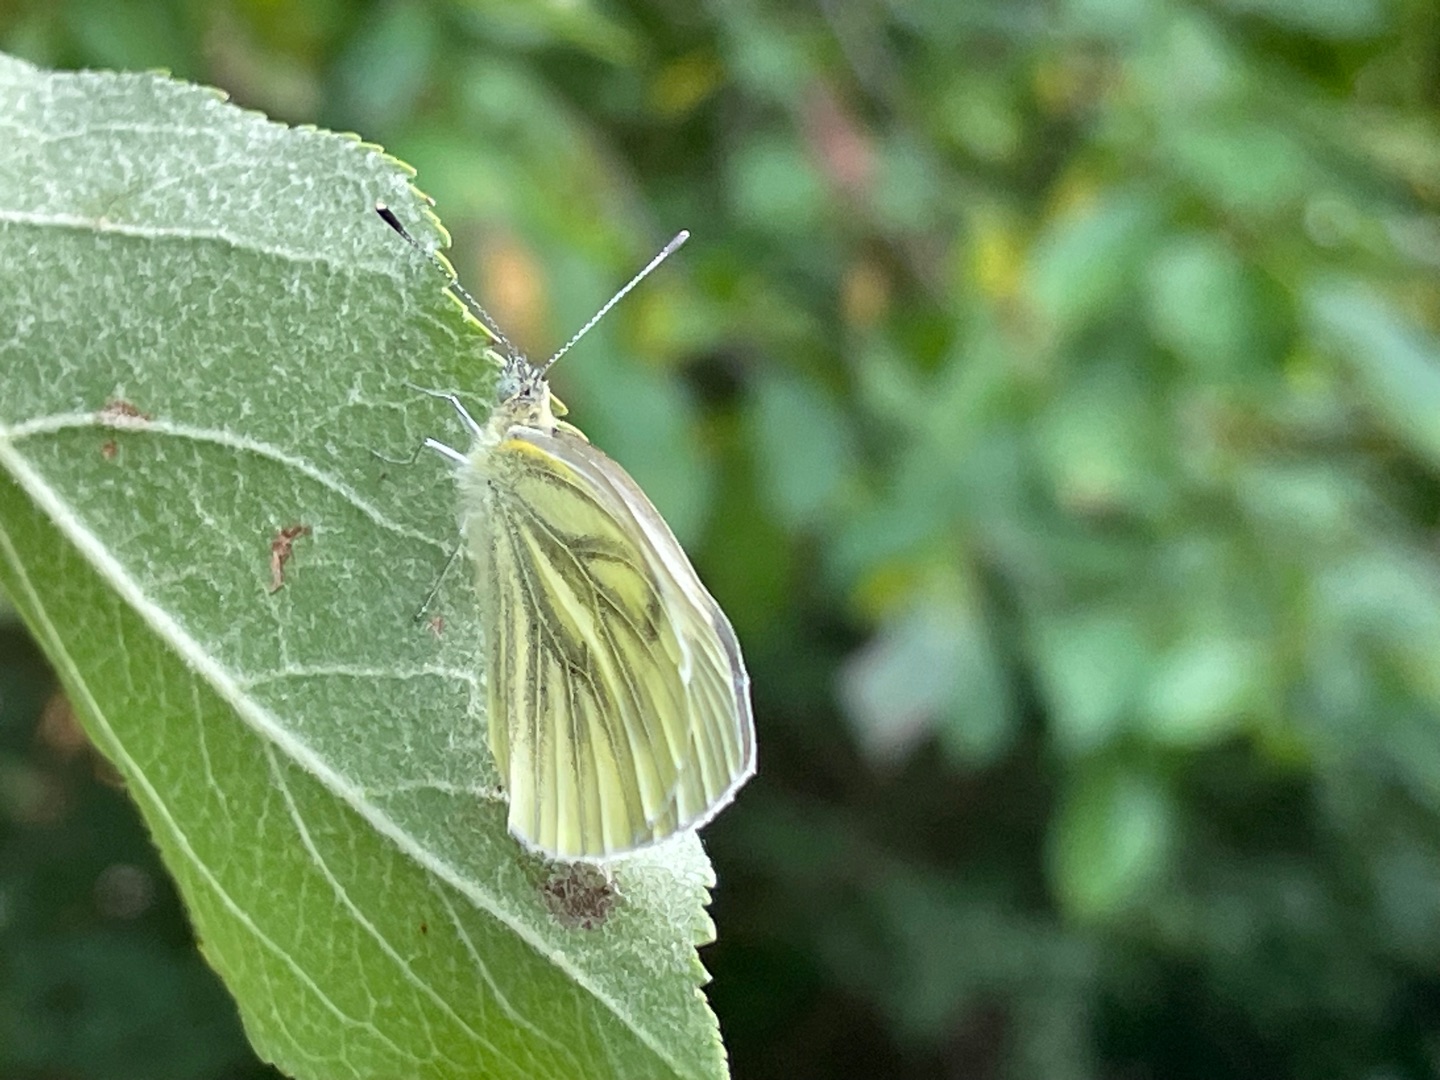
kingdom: Animalia
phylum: Arthropoda
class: Insecta
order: Lepidoptera
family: Pieridae
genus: Pieris
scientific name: Pieris napi
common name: Grønåret kålsommerfugl
